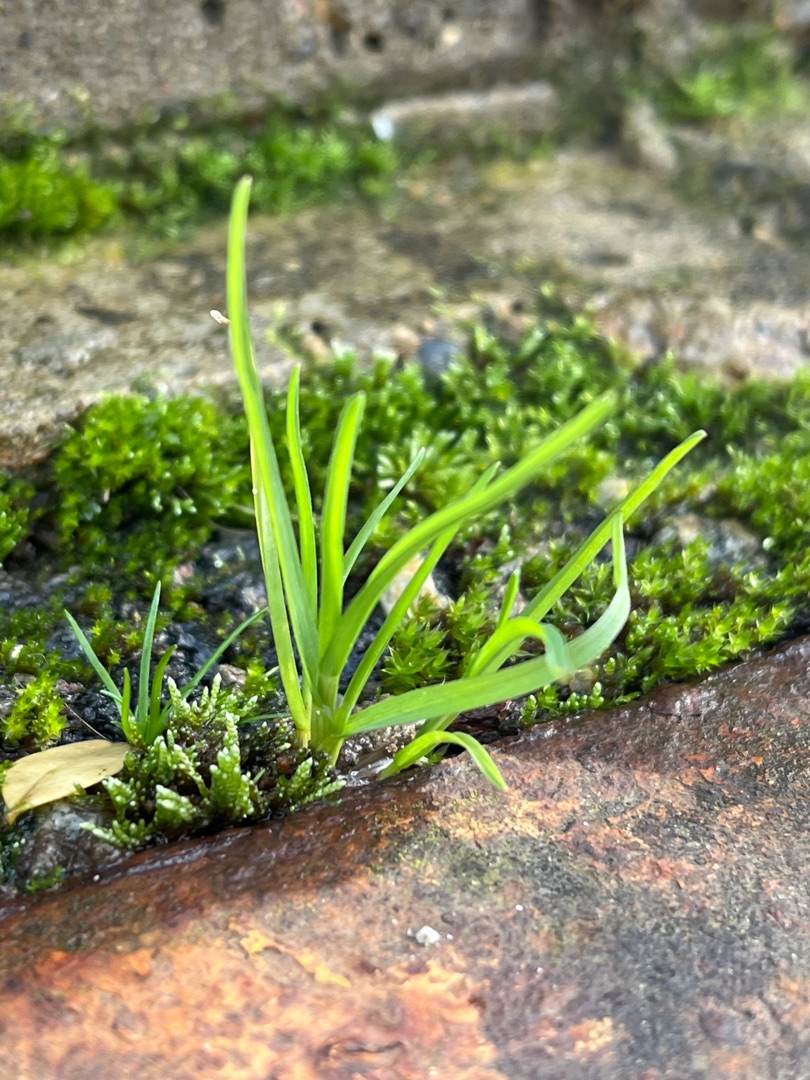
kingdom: Plantae
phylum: Tracheophyta
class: Liliopsida
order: Poales
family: Poaceae
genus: Poa
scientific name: Poa annua
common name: Enårig rapgræs
